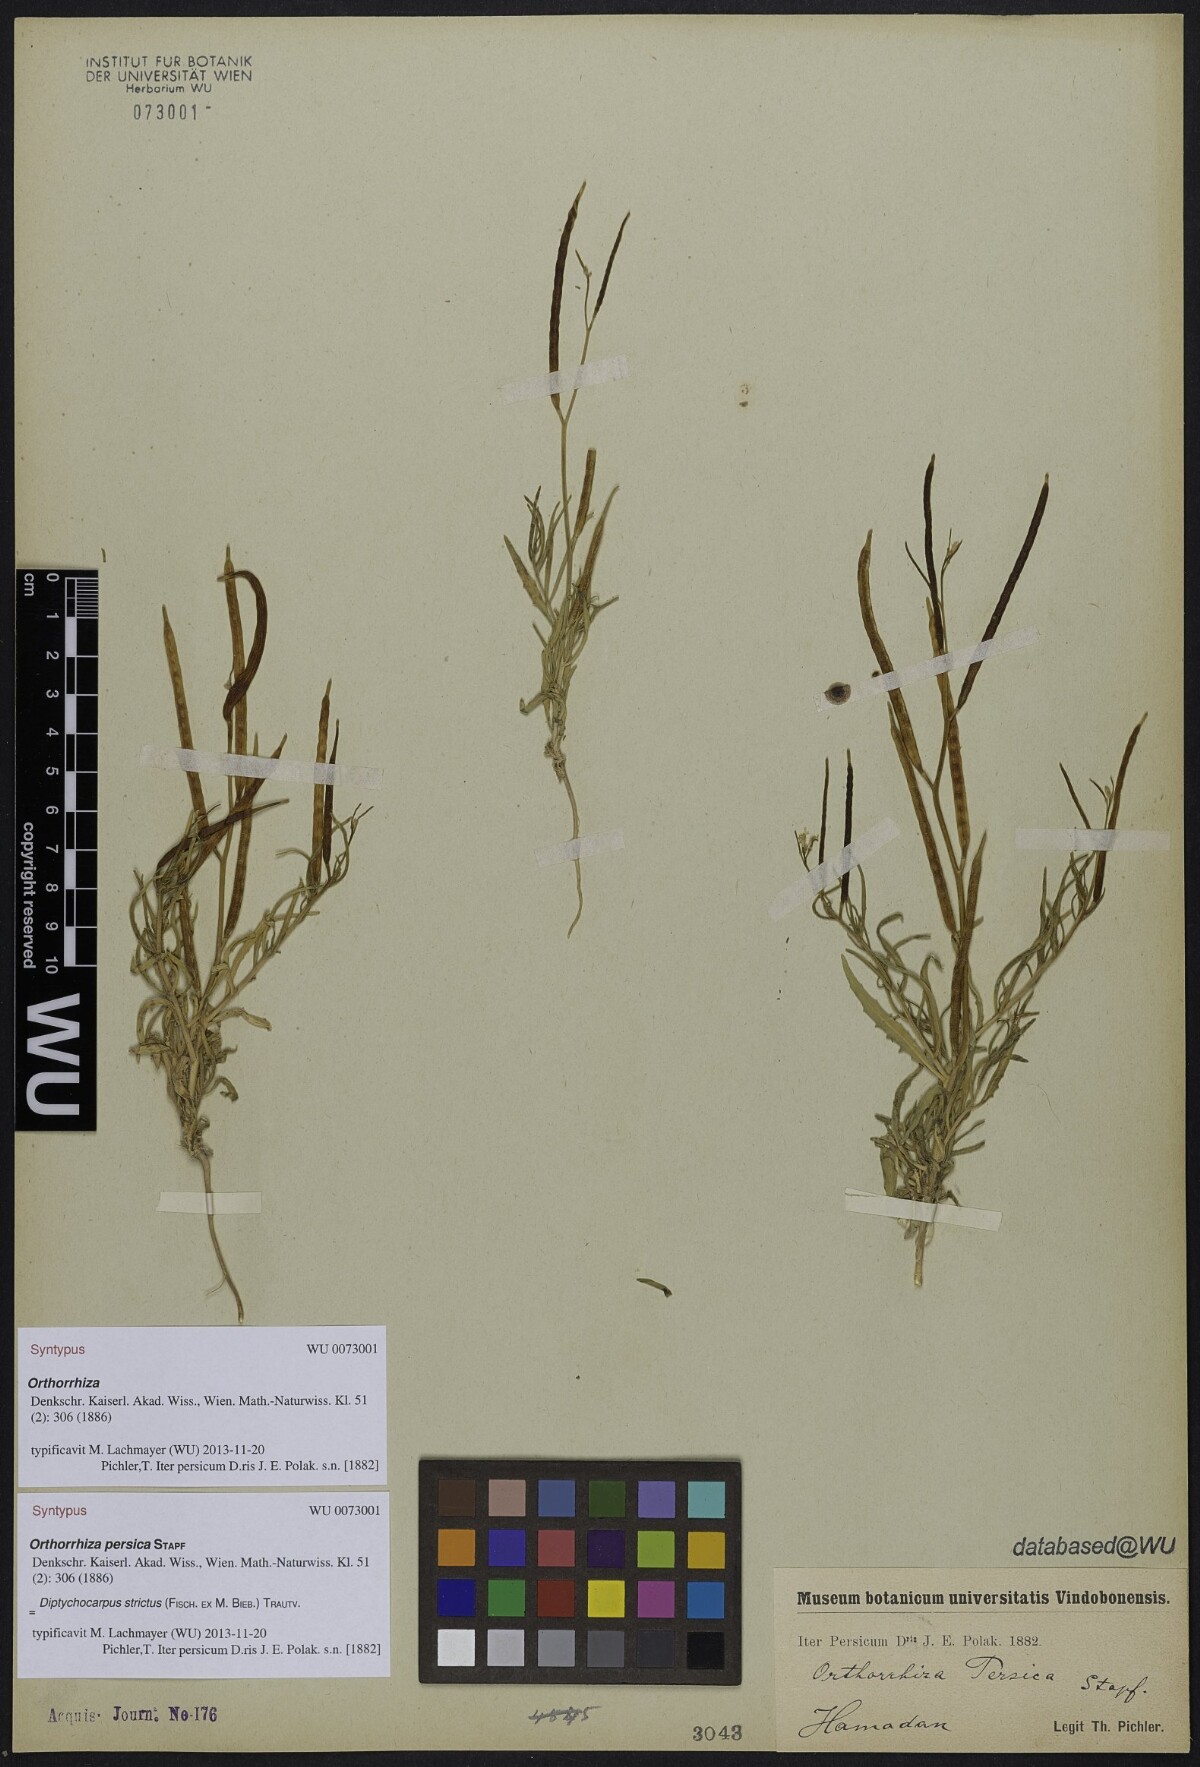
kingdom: Plantae
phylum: Tracheophyta
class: Magnoliopsida
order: Brassicales
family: Brassicaceae
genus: Diptychocarpus
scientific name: Diptychocarpus strictus
